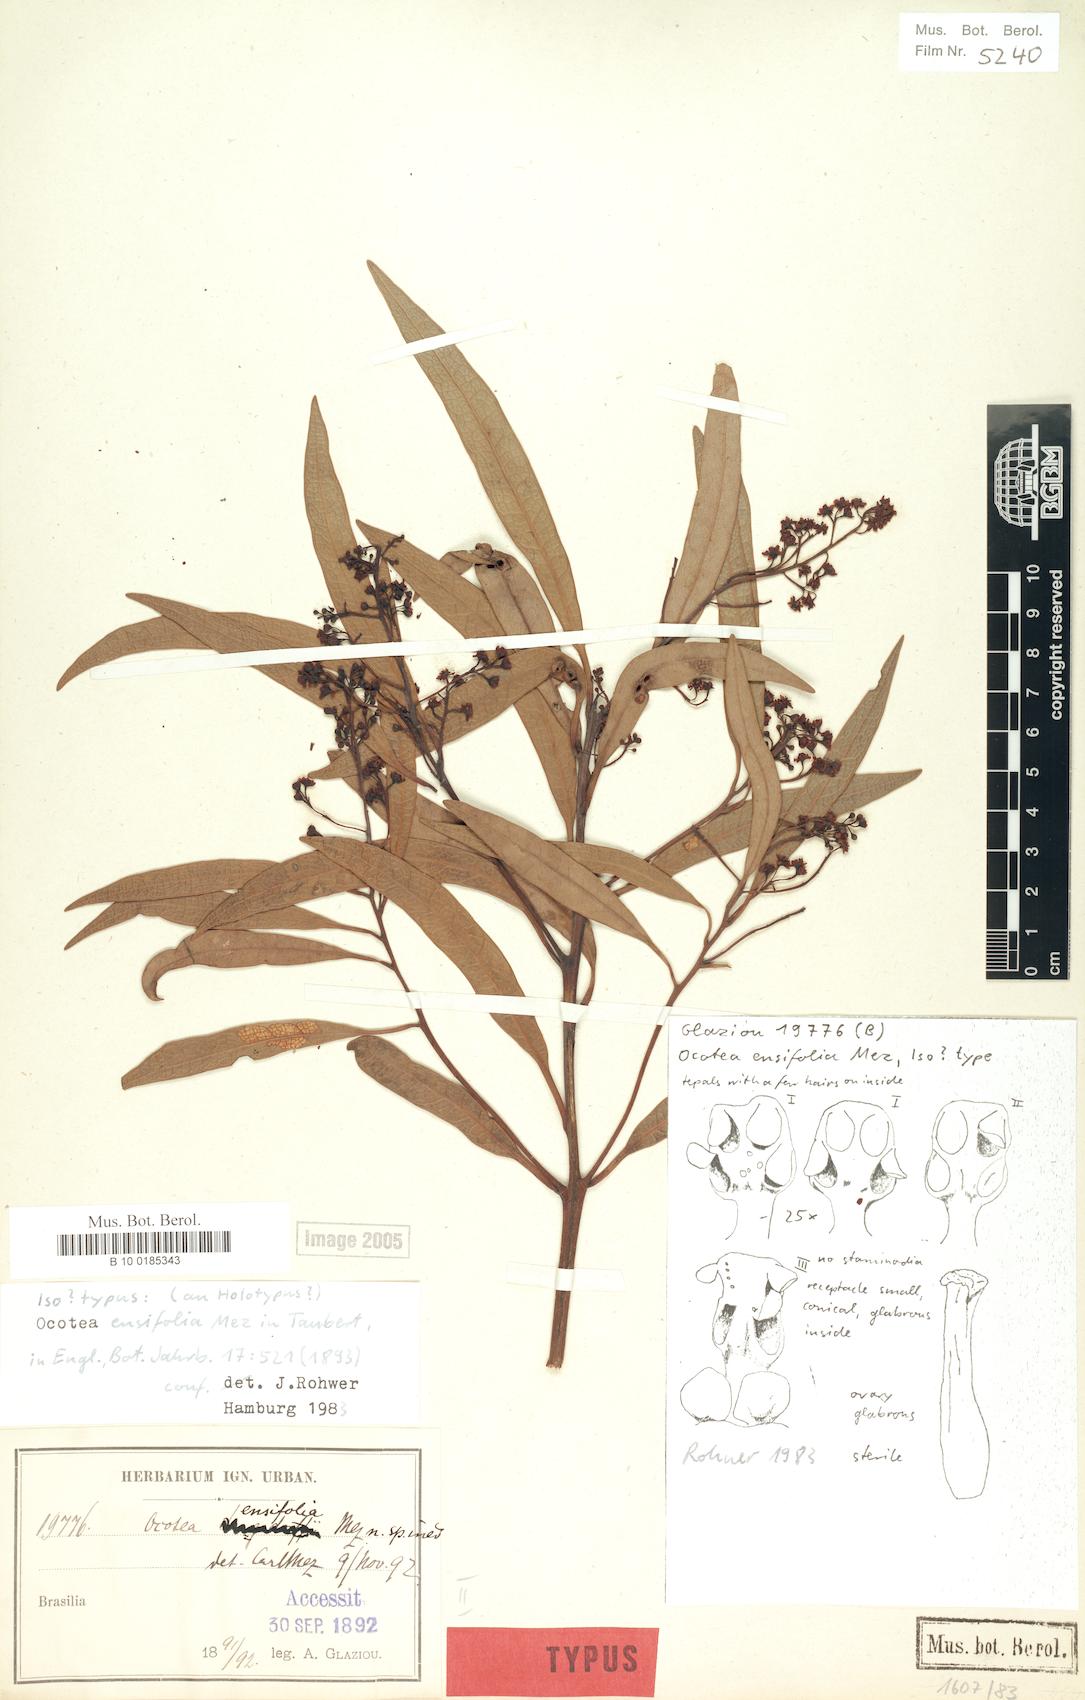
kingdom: Plantae
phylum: Tracheophyta
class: Magnoliopsida
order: Laurales
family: Lauraceae
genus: Ocotea
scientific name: Ocotea ensifolia
